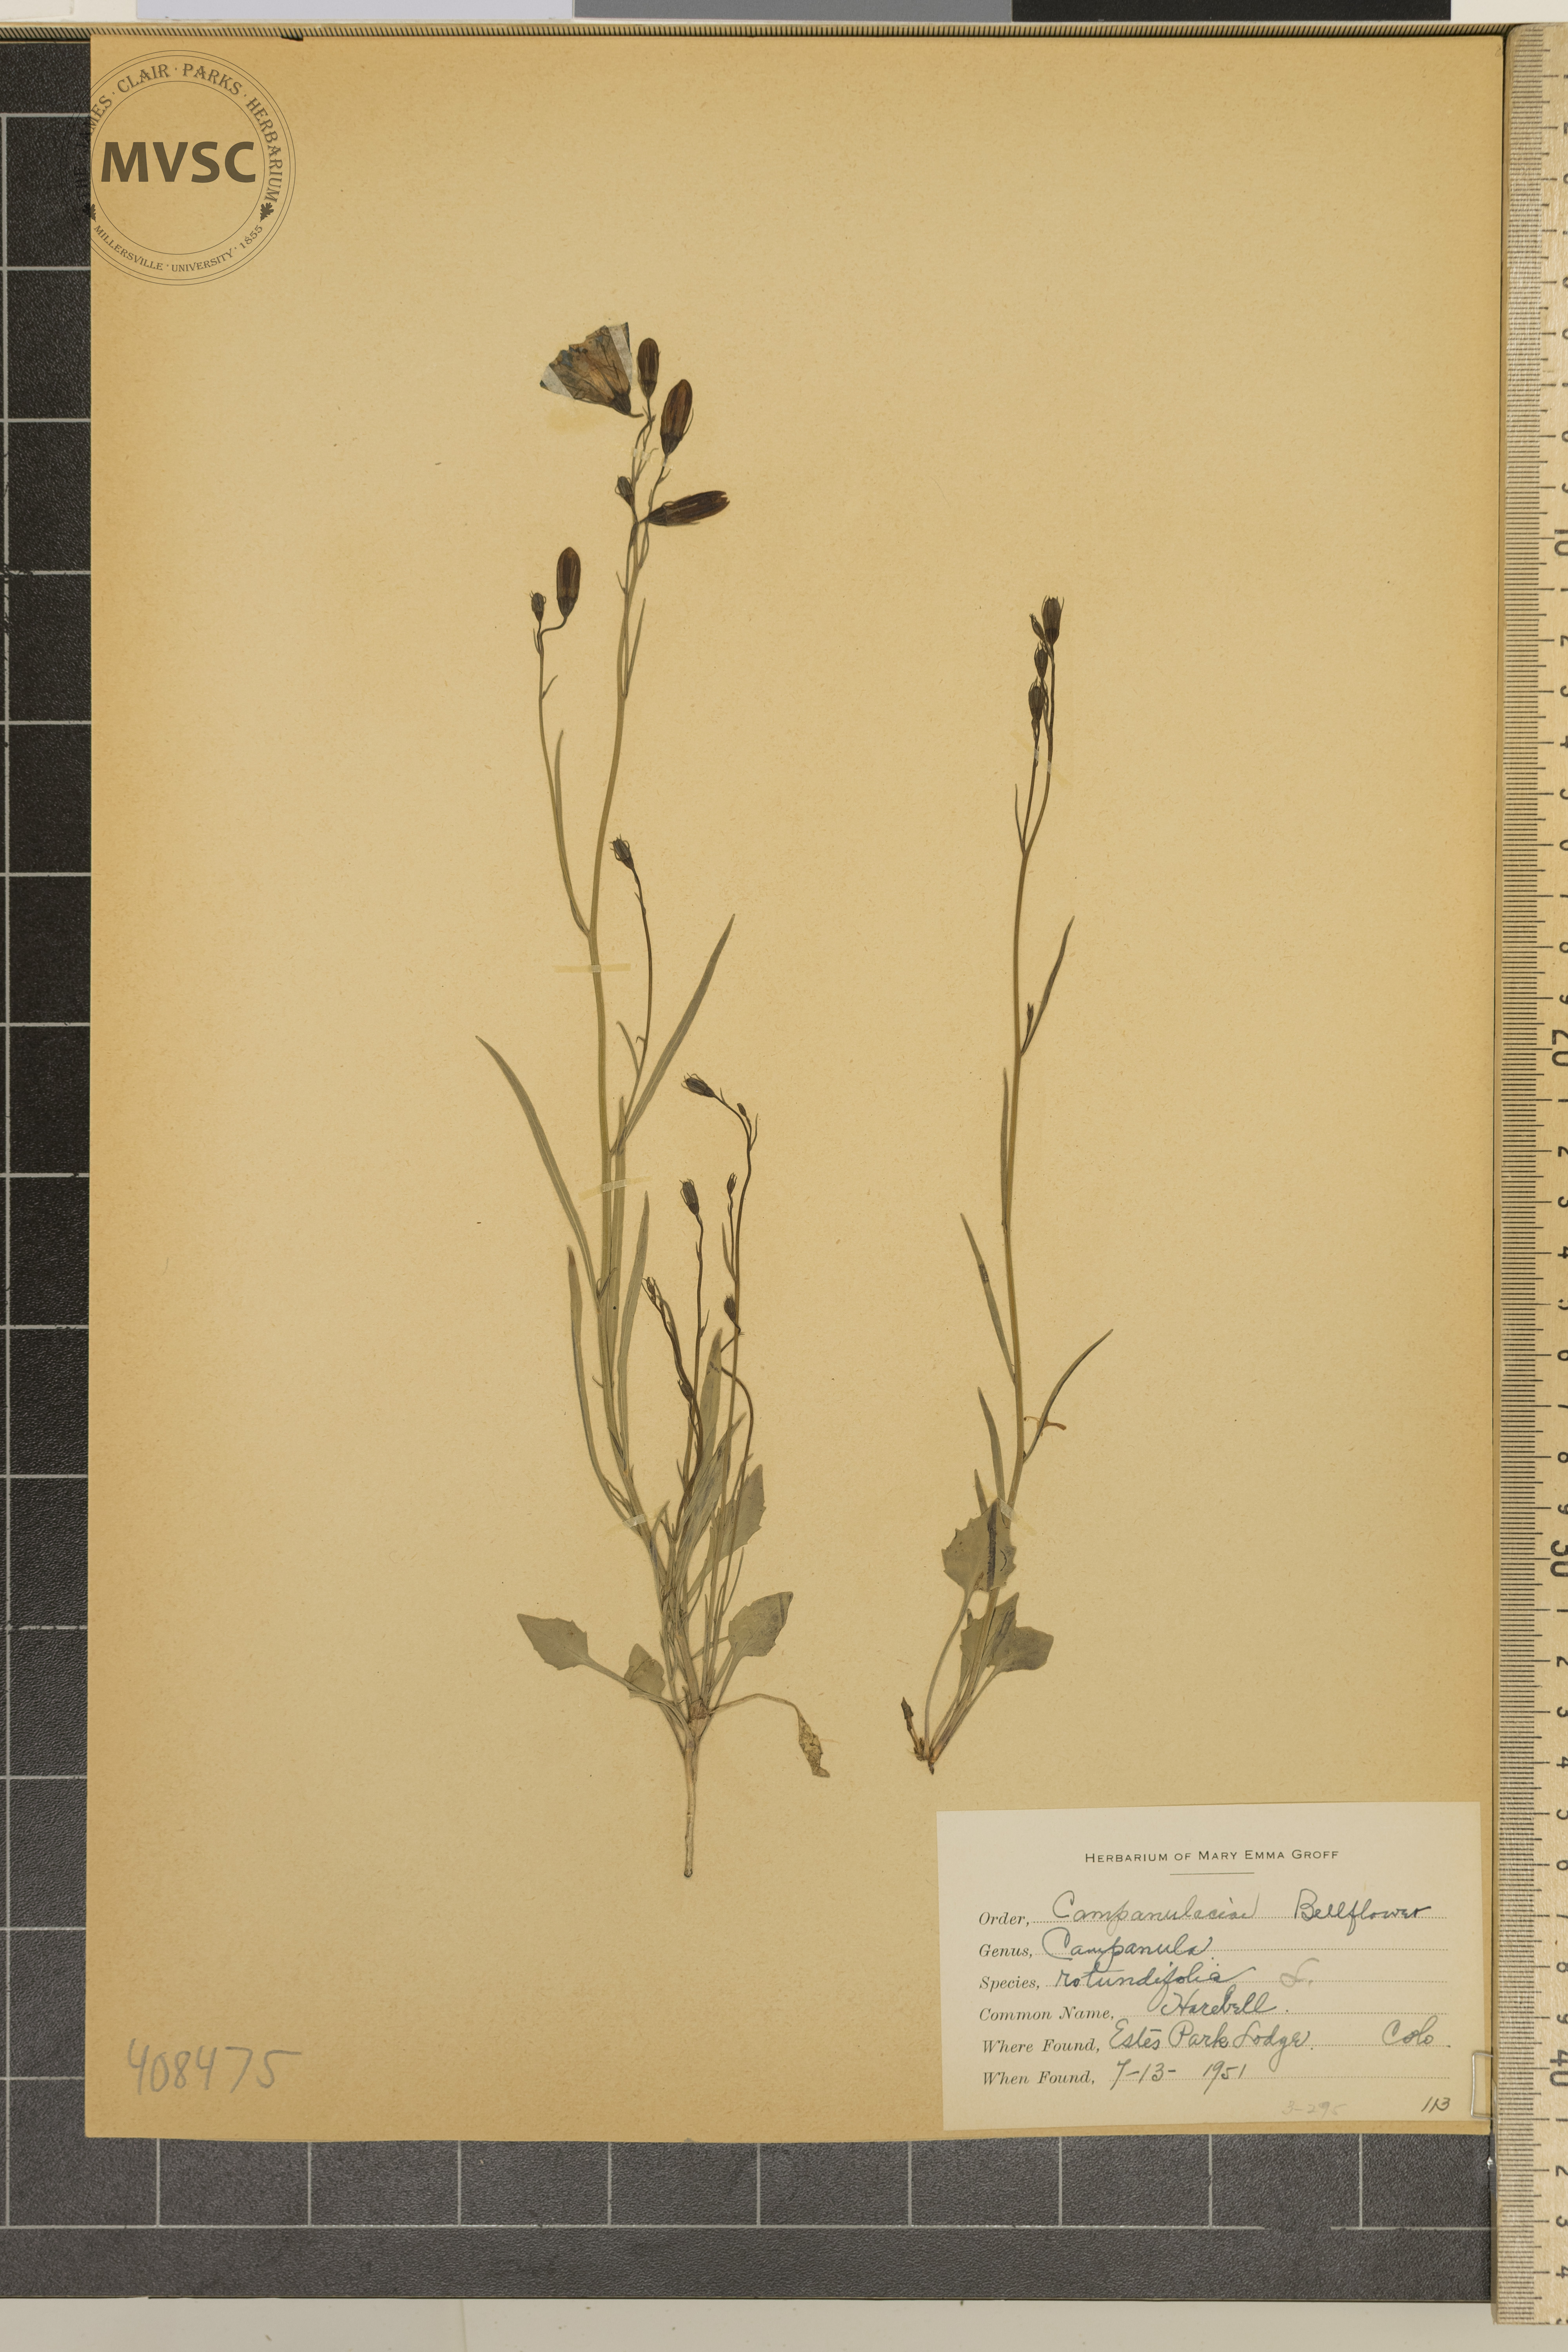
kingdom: Plantae
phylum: Tracheophyta
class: Magnoliopsida
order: Asterales
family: Campanulaceae
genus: Campanula
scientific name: Campanula rotundifolia
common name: Harebell
